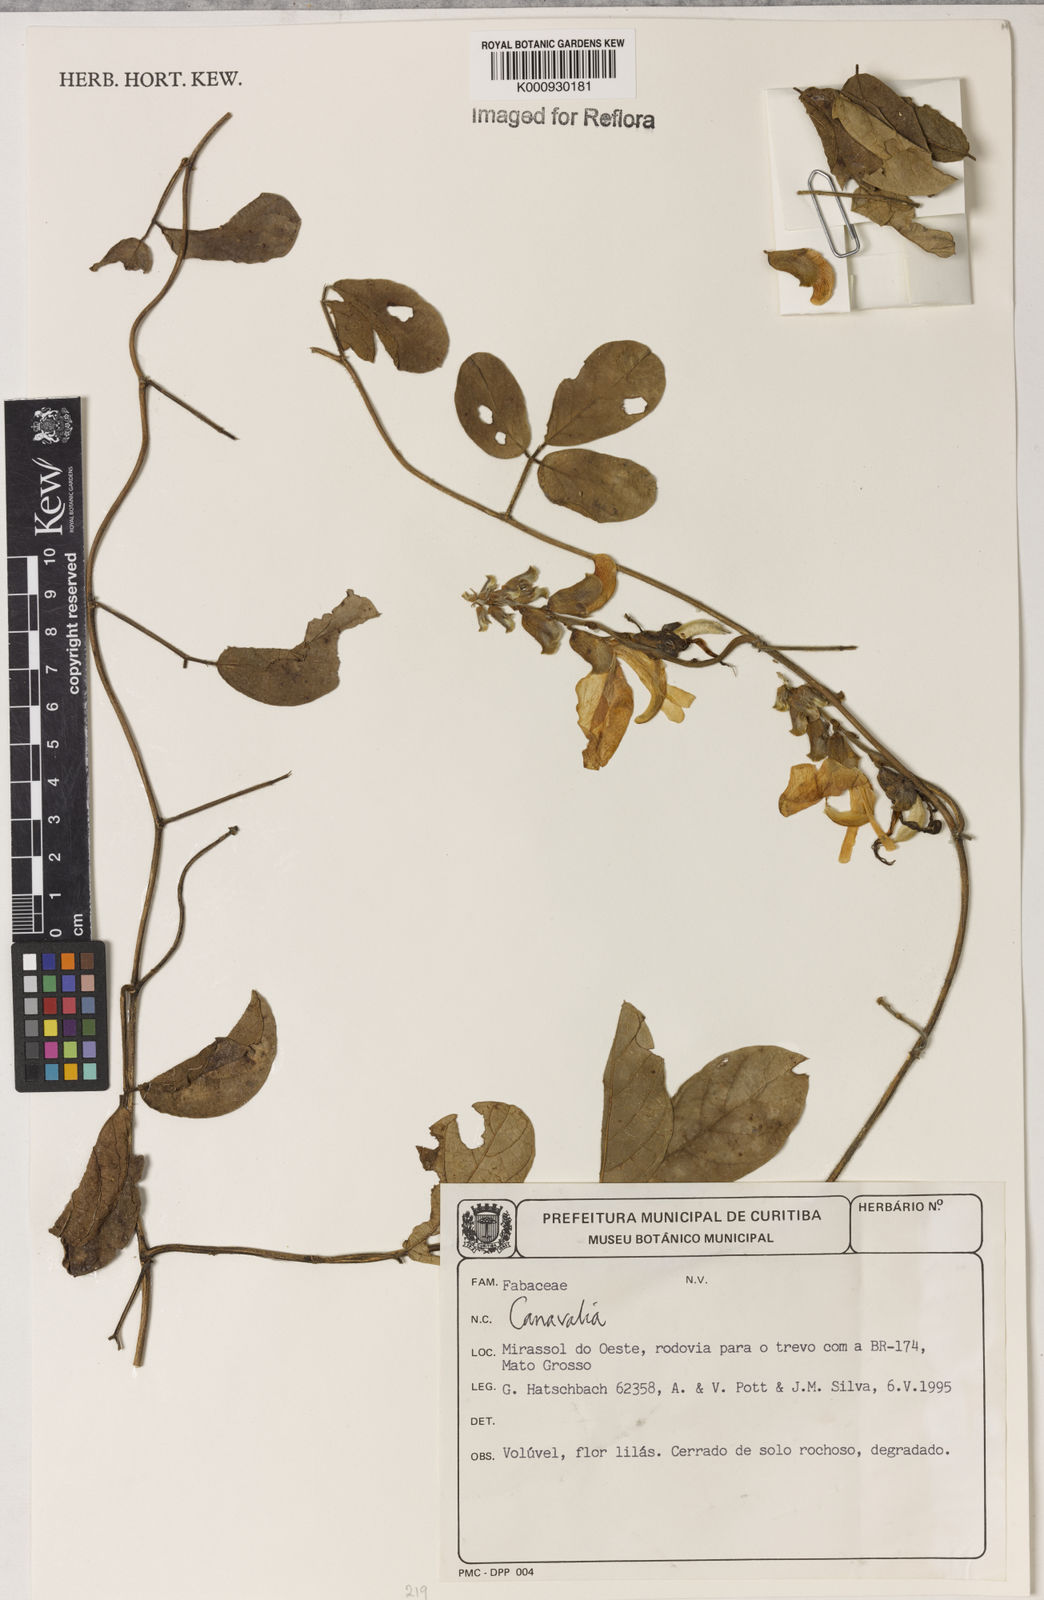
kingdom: Plantae
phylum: Tracheophyta
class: Magnoliopsida
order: Fabales
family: Fabaceae
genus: Canavalia
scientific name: Canavalia
